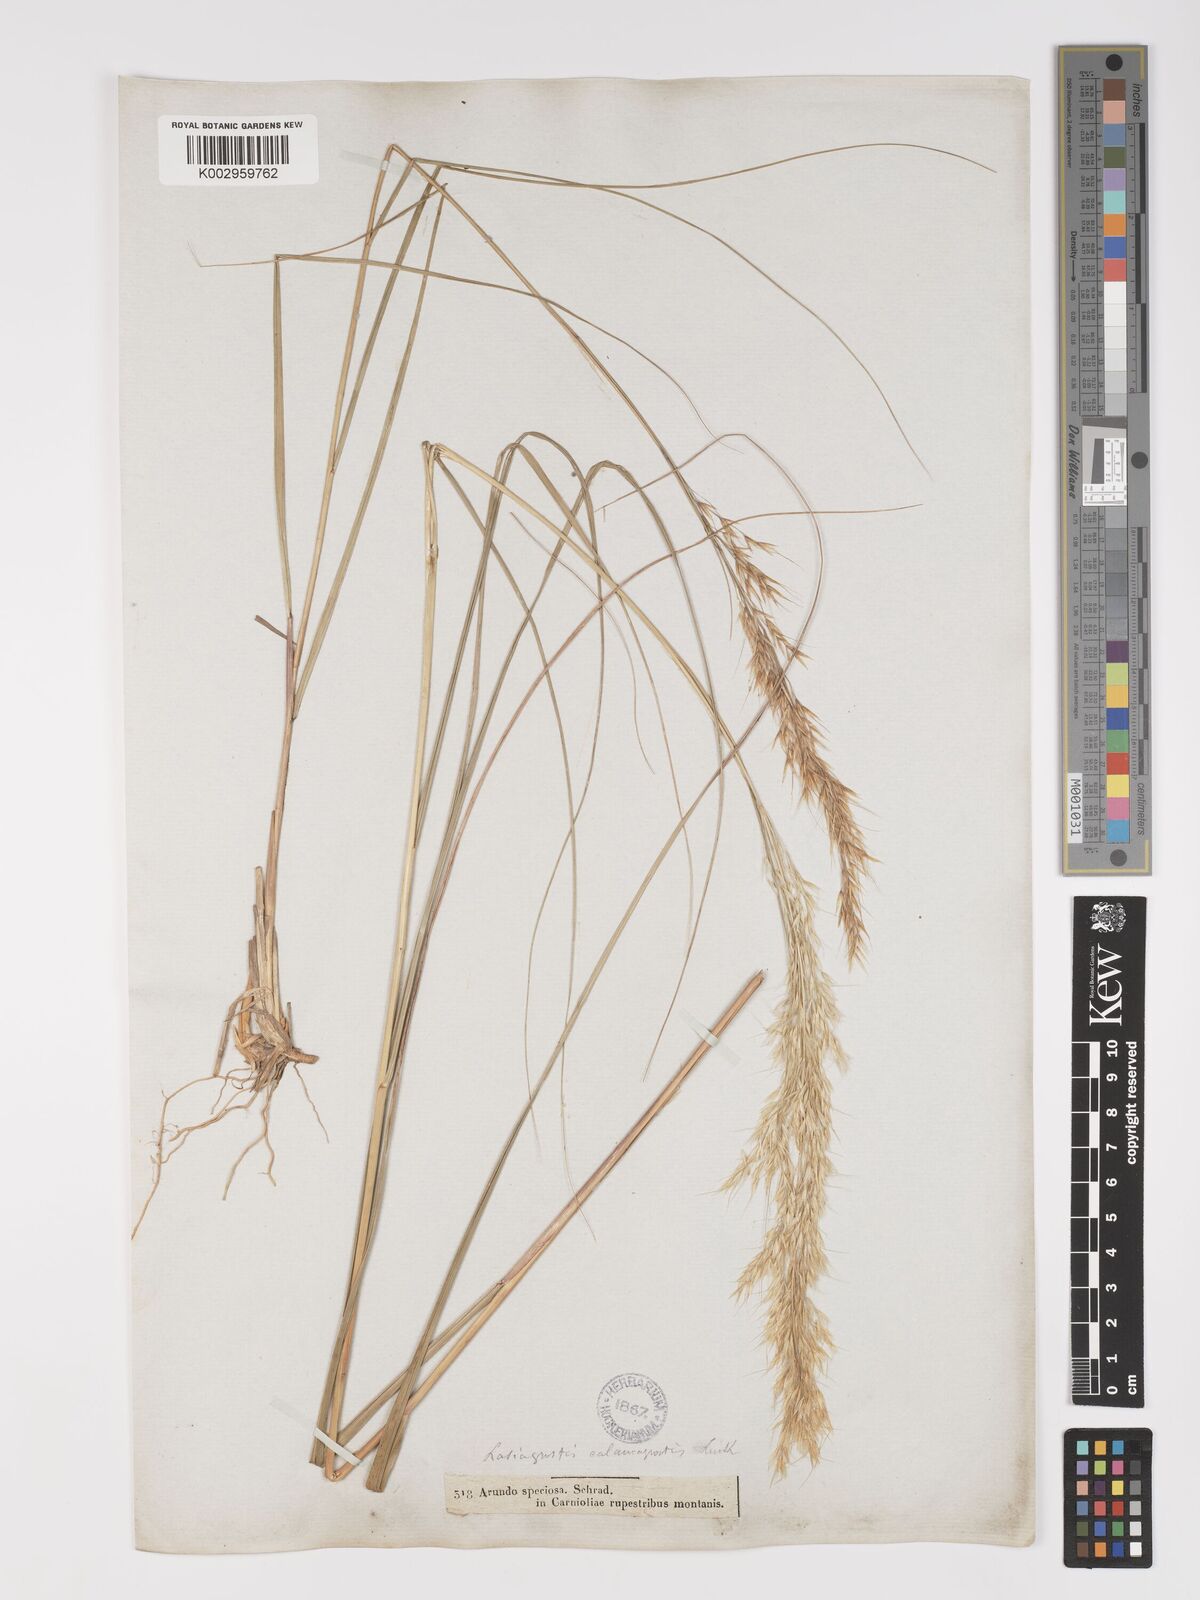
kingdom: Plantae
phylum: Tracheophyta
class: Liliopsida
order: Poales
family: Poaceae
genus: Achnatherum
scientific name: Achnatherum calamagrostis
